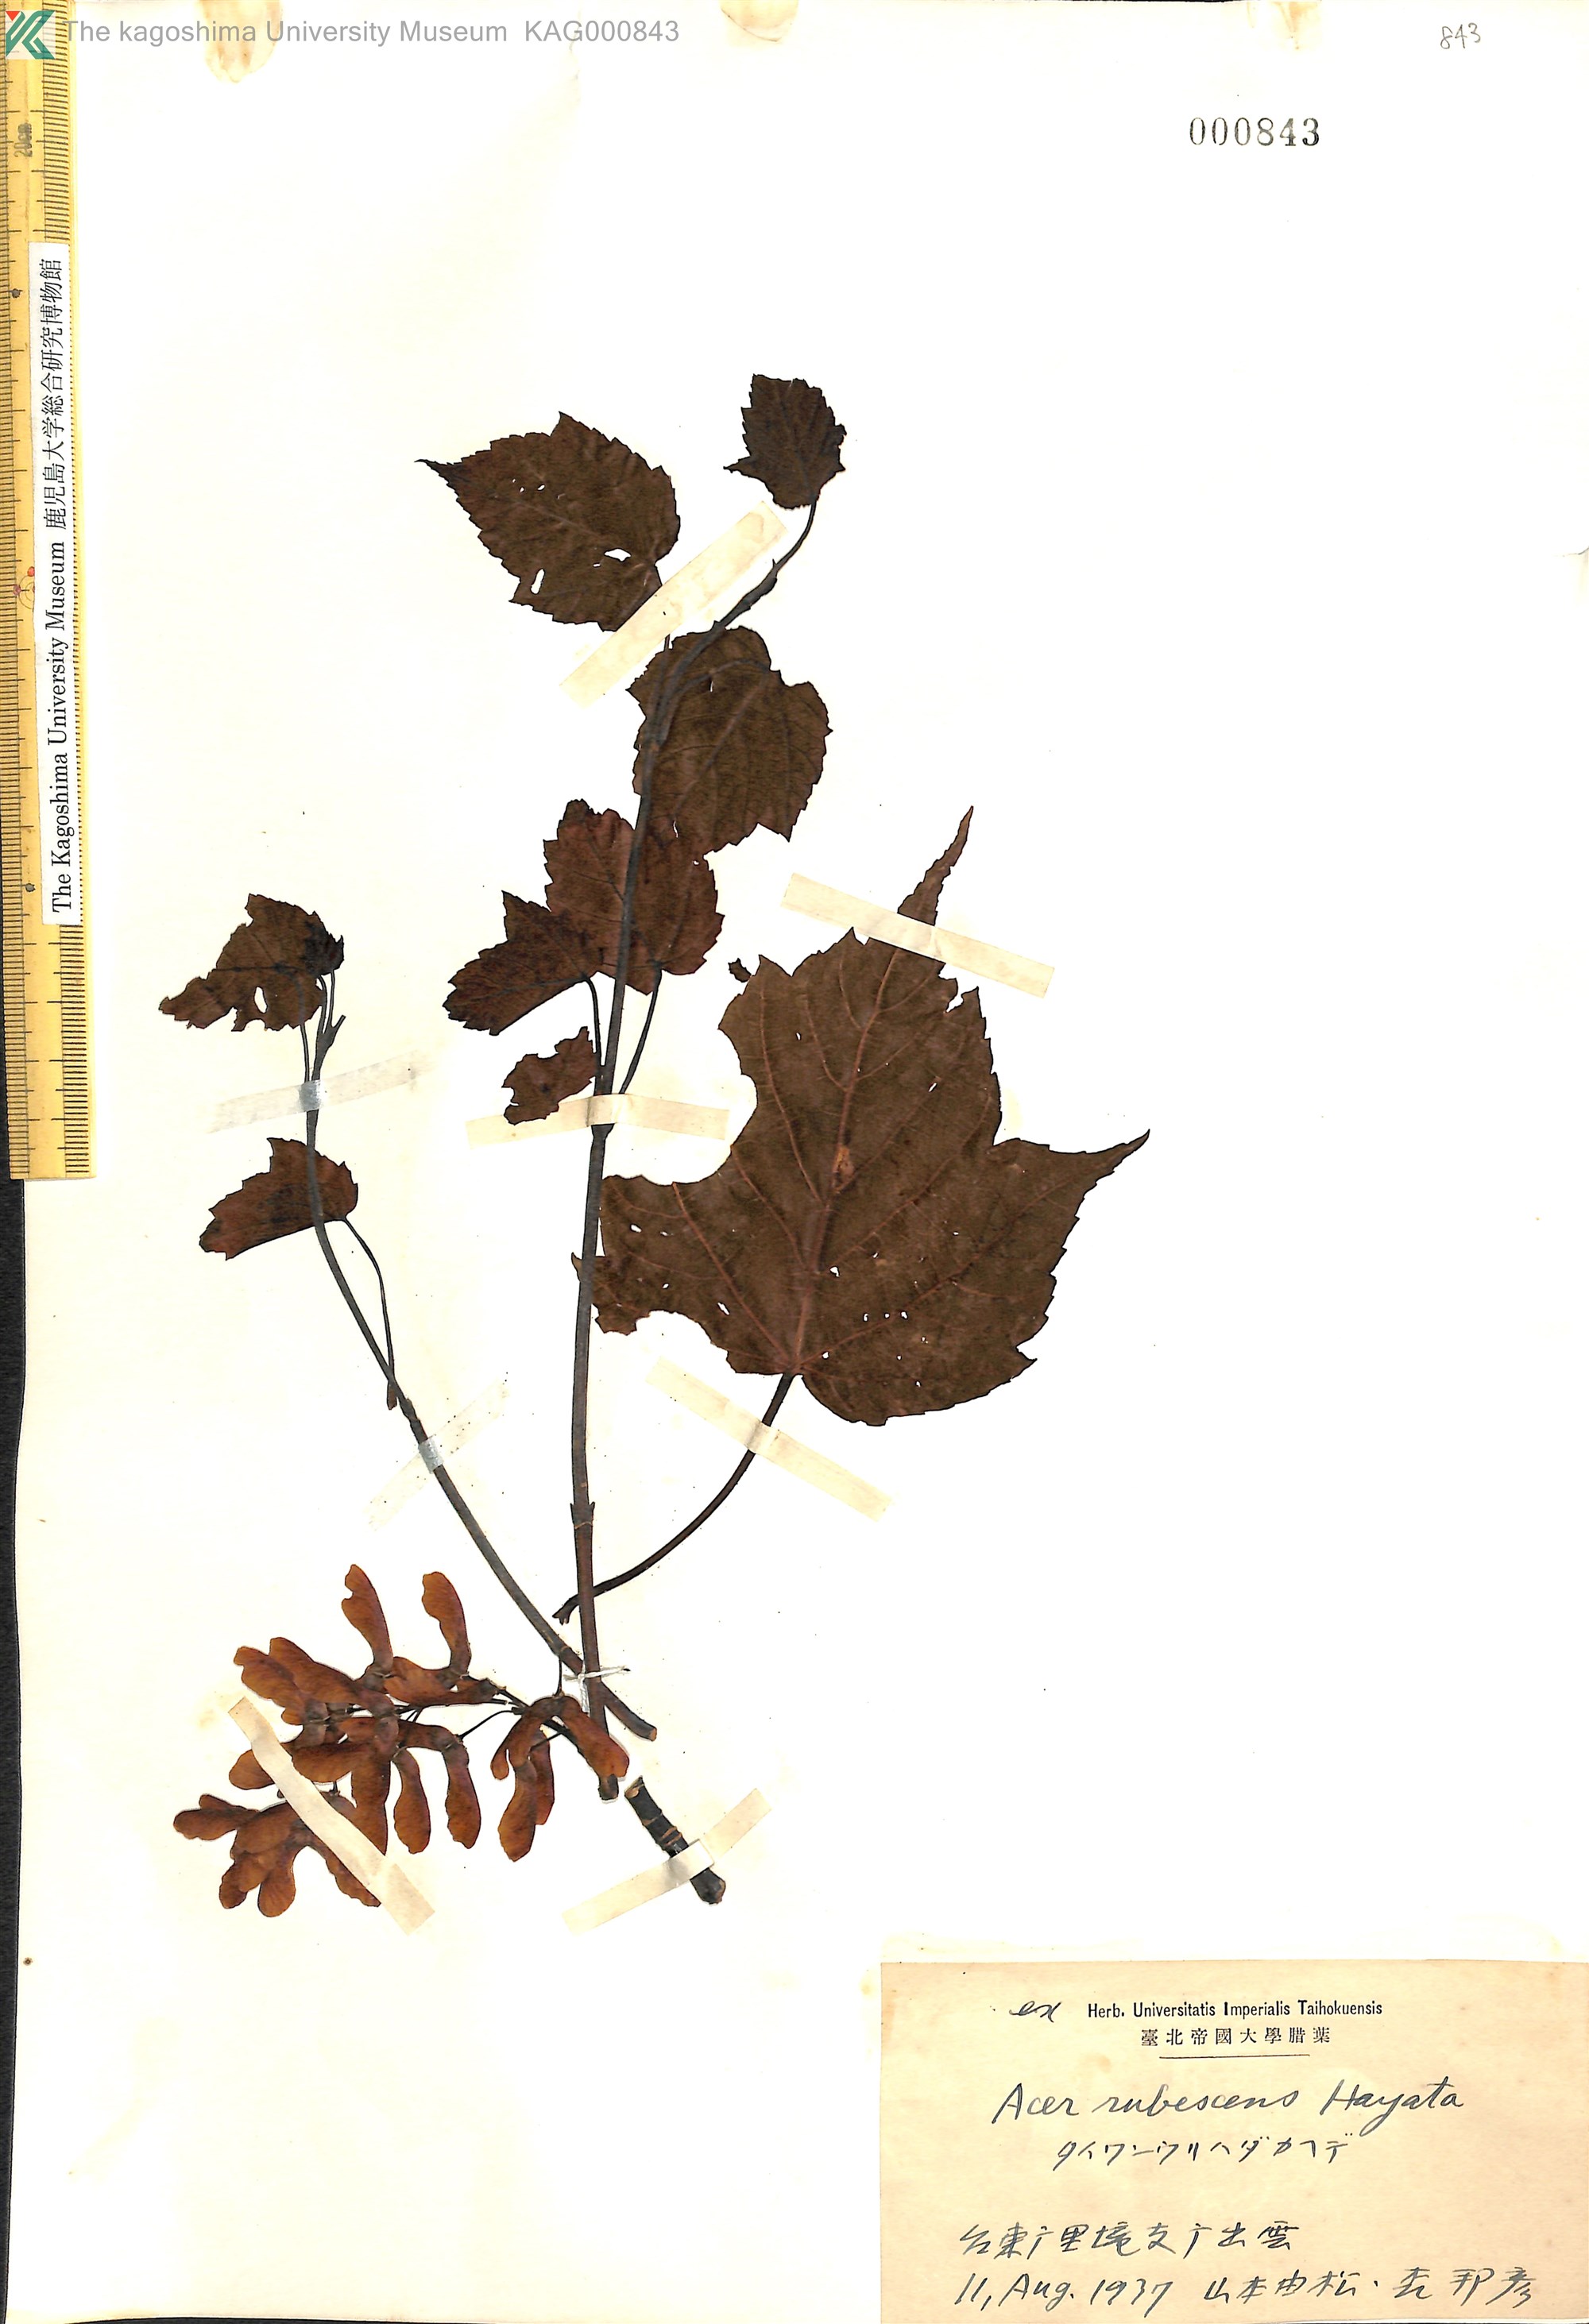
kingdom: Plantae
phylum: Tracheophyta
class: Magnoliopsida
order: Sapindales
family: Sapindaceae
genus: Acer
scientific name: Acer caudatifolium
